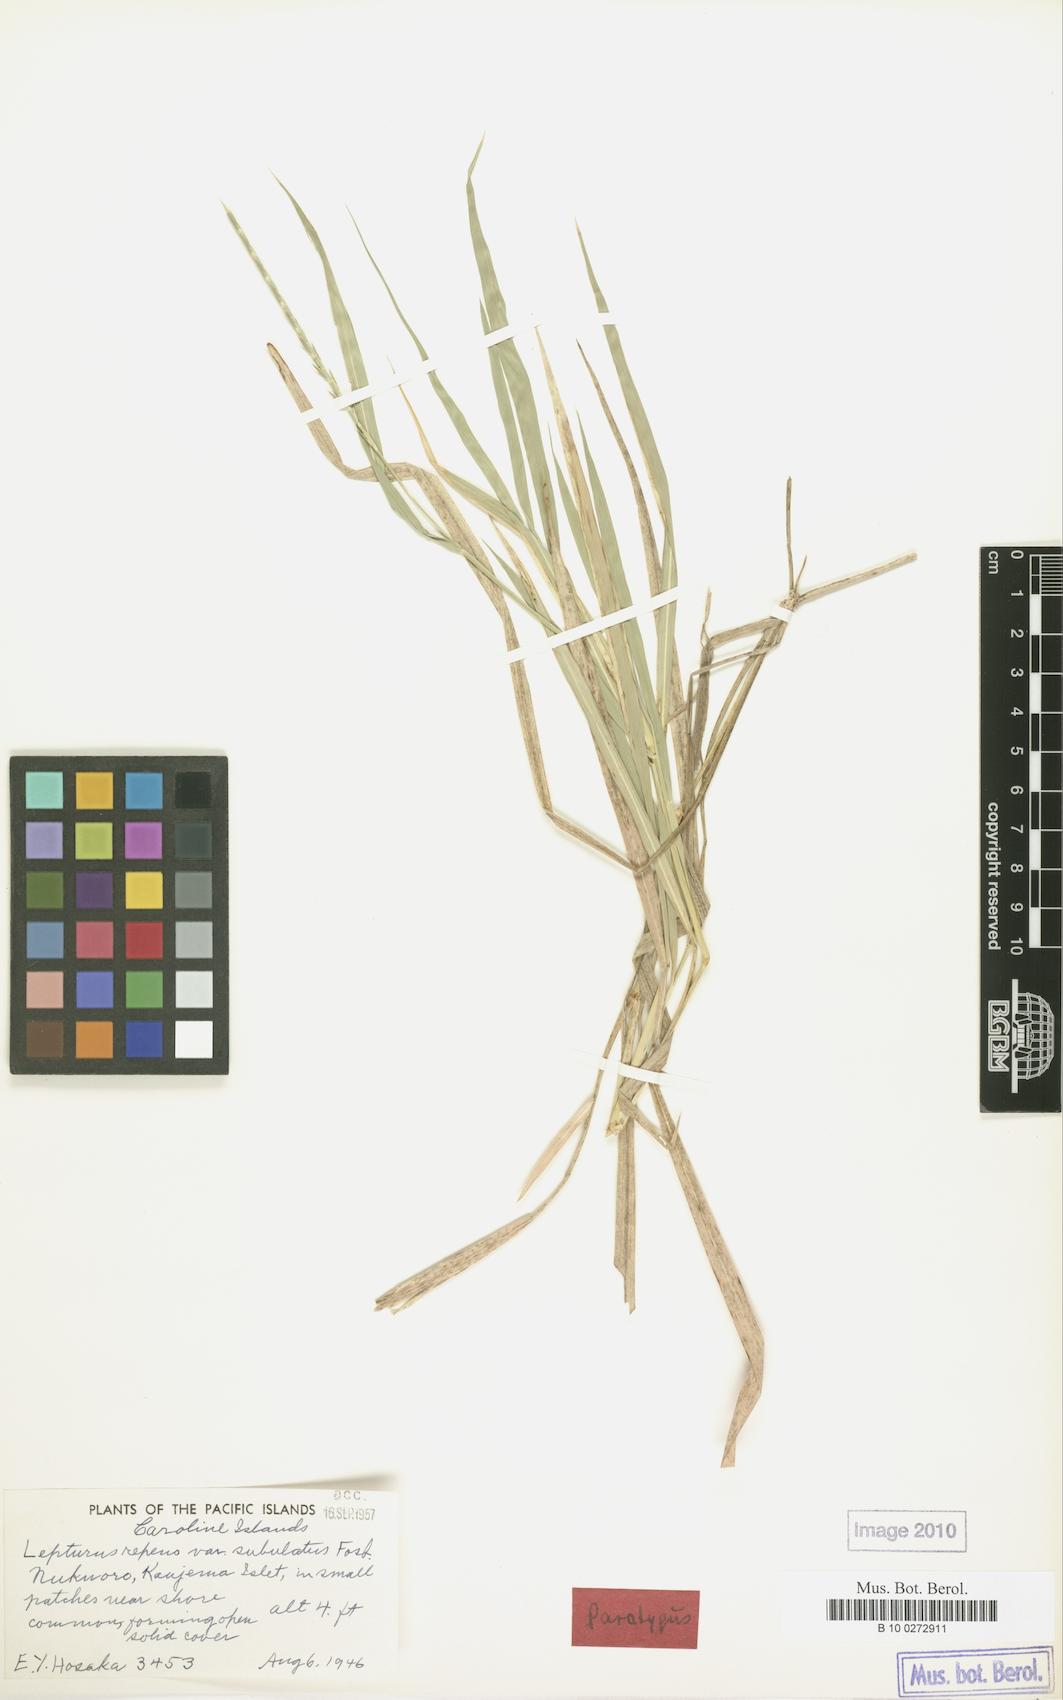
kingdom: Plantae
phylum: Tracheophyta
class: Liliopsida
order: Poales
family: Poaceae
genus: Lepturus
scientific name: Lepturus repens
